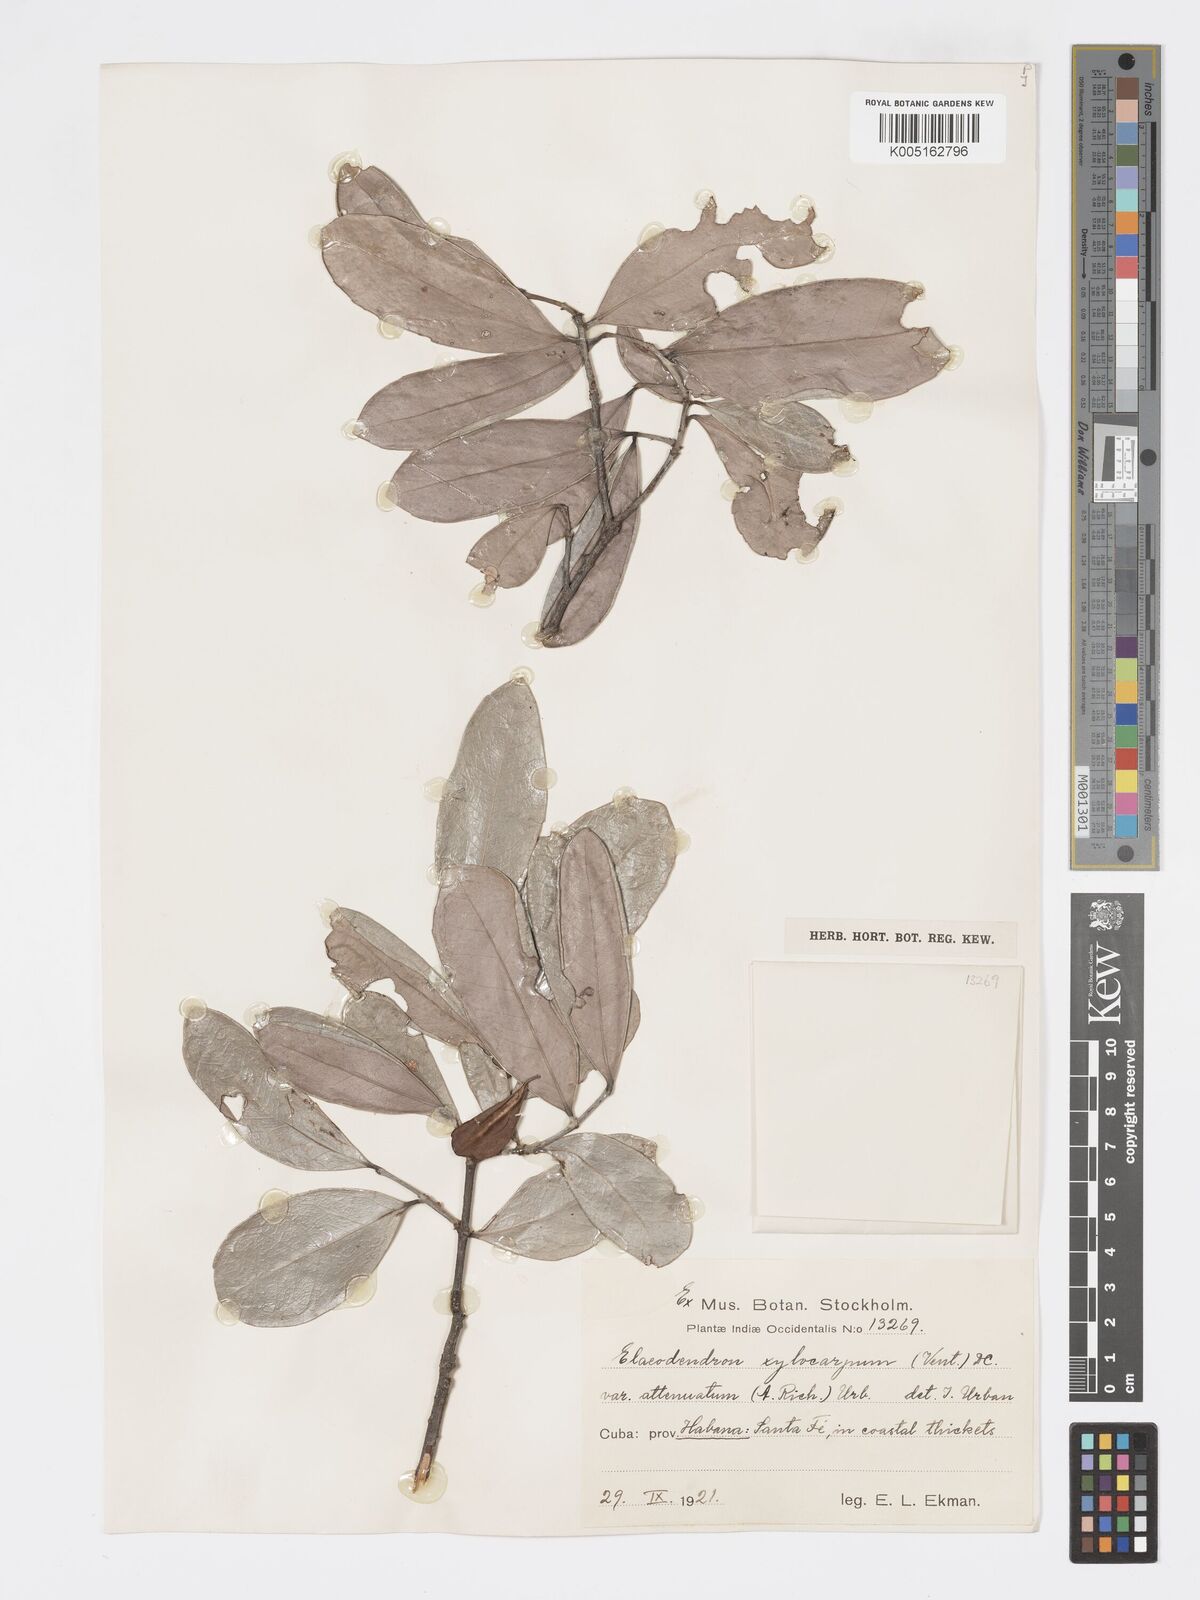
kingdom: Plantae
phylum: Tracheophyta
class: Magnoliopsida
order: Celastrales
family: Celastraceae
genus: Elaeodendron
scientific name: Elaeodendron xylocarpum
